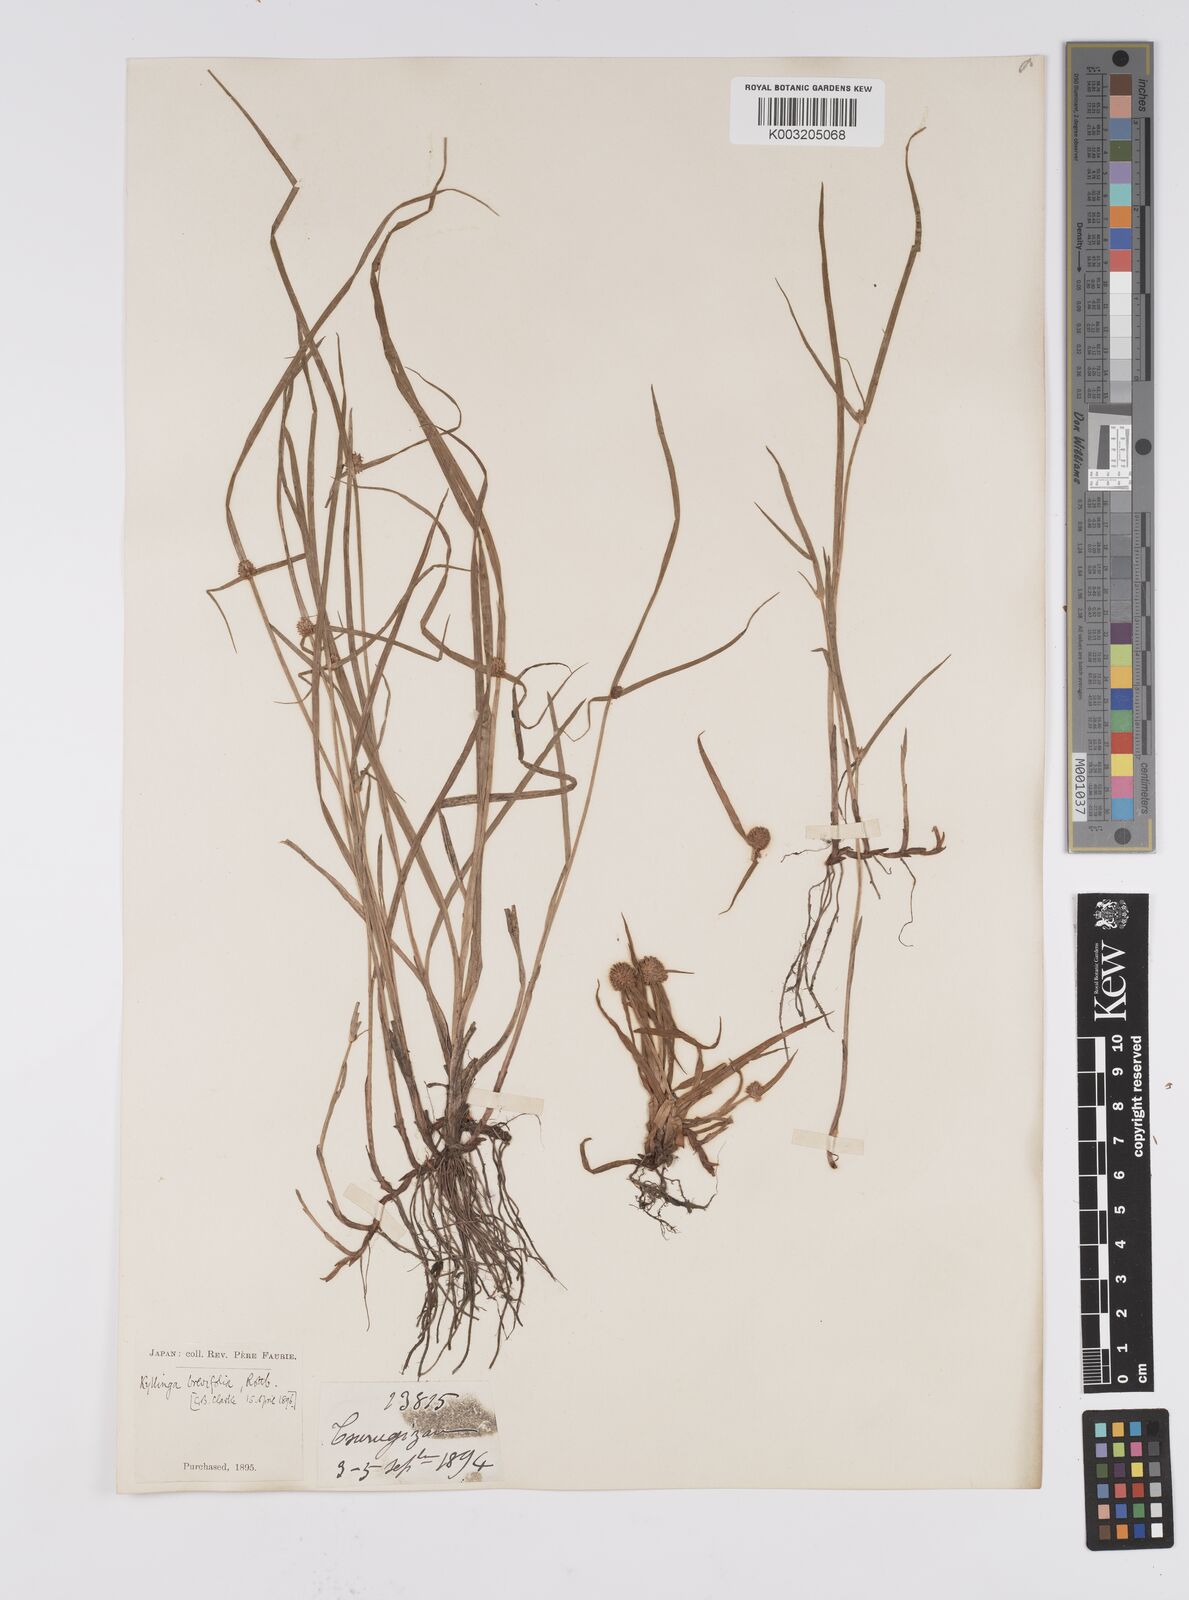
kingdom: Plantae
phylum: Tracheophyta
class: Liliopsida
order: Poales
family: Cyperaceae
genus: Cyperus
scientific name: Cyperus brevifolius
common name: Globe kyllinga
